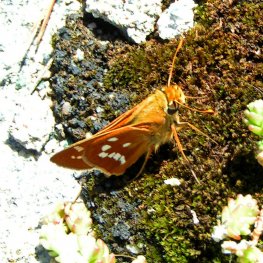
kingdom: Animalia
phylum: Arthropoda
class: Insecta
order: Lepidoptera
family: Hesperiidae
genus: Hesperia
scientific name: Hesperia leonardus
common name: Leonard's Skipper
